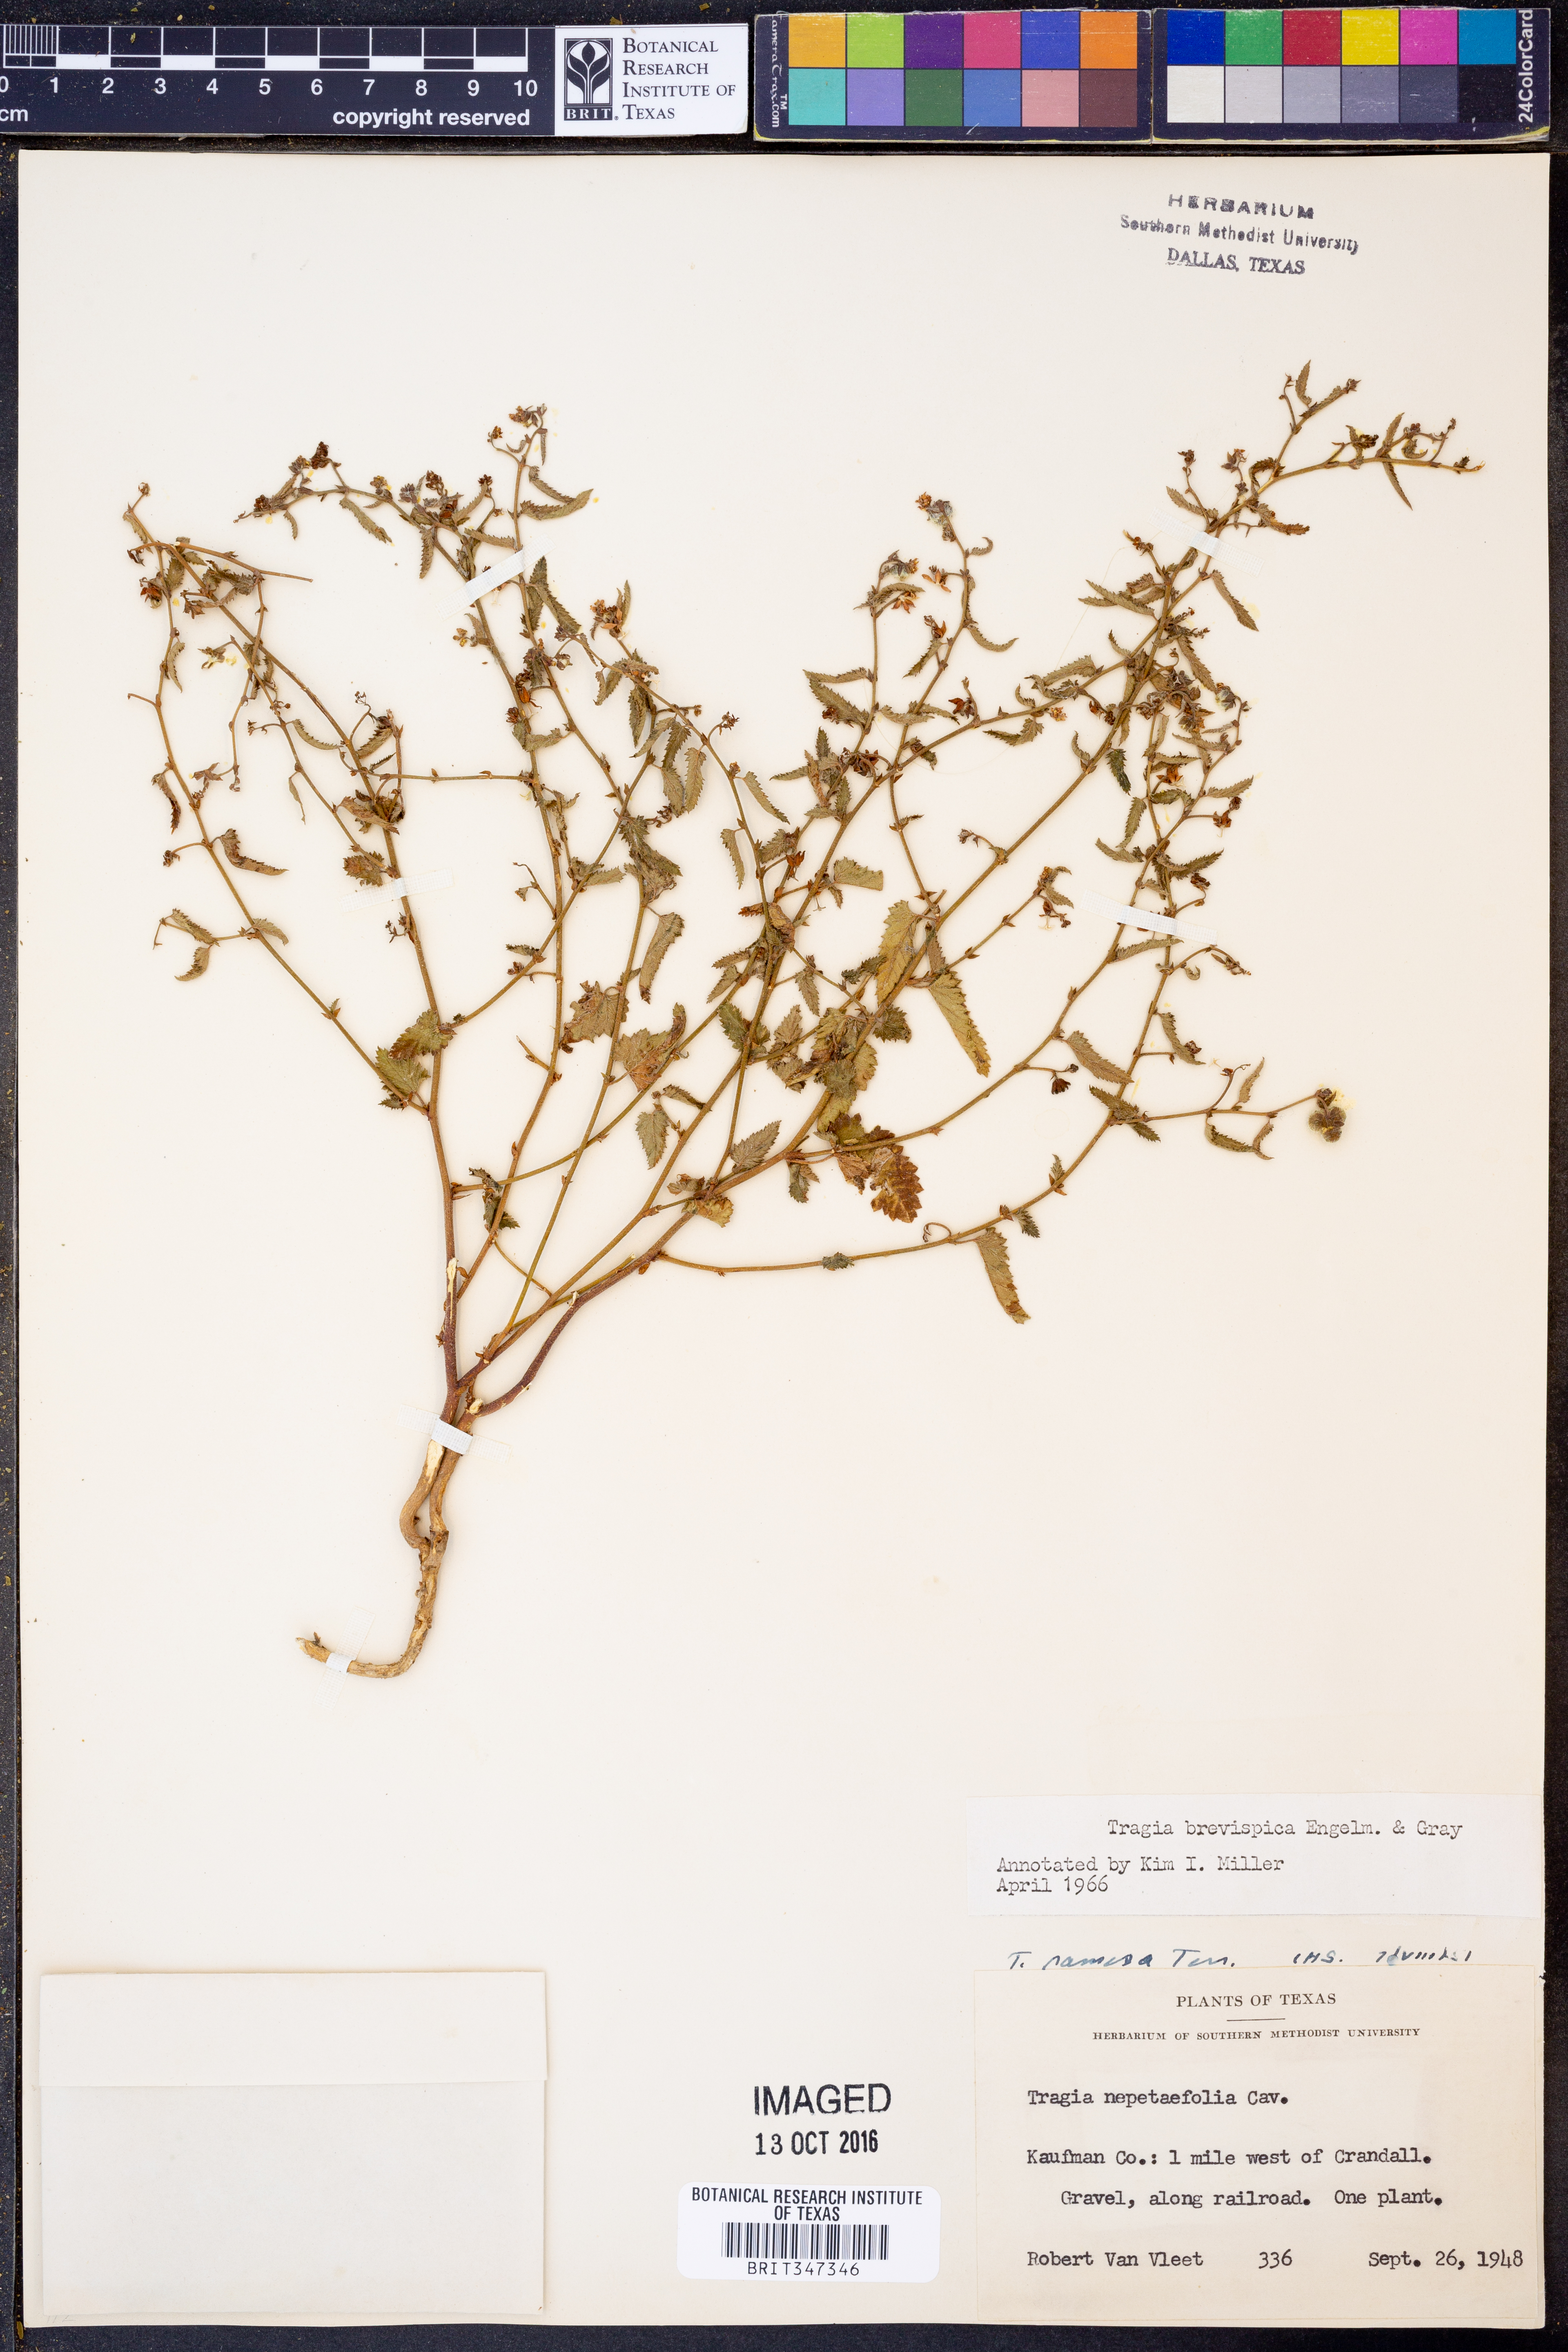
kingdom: Plantae
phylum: Tracheophyta
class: Magnoliopsida
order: Malpighiales
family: Euphorbiaceae
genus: Tragia
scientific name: Tragia brevispica
